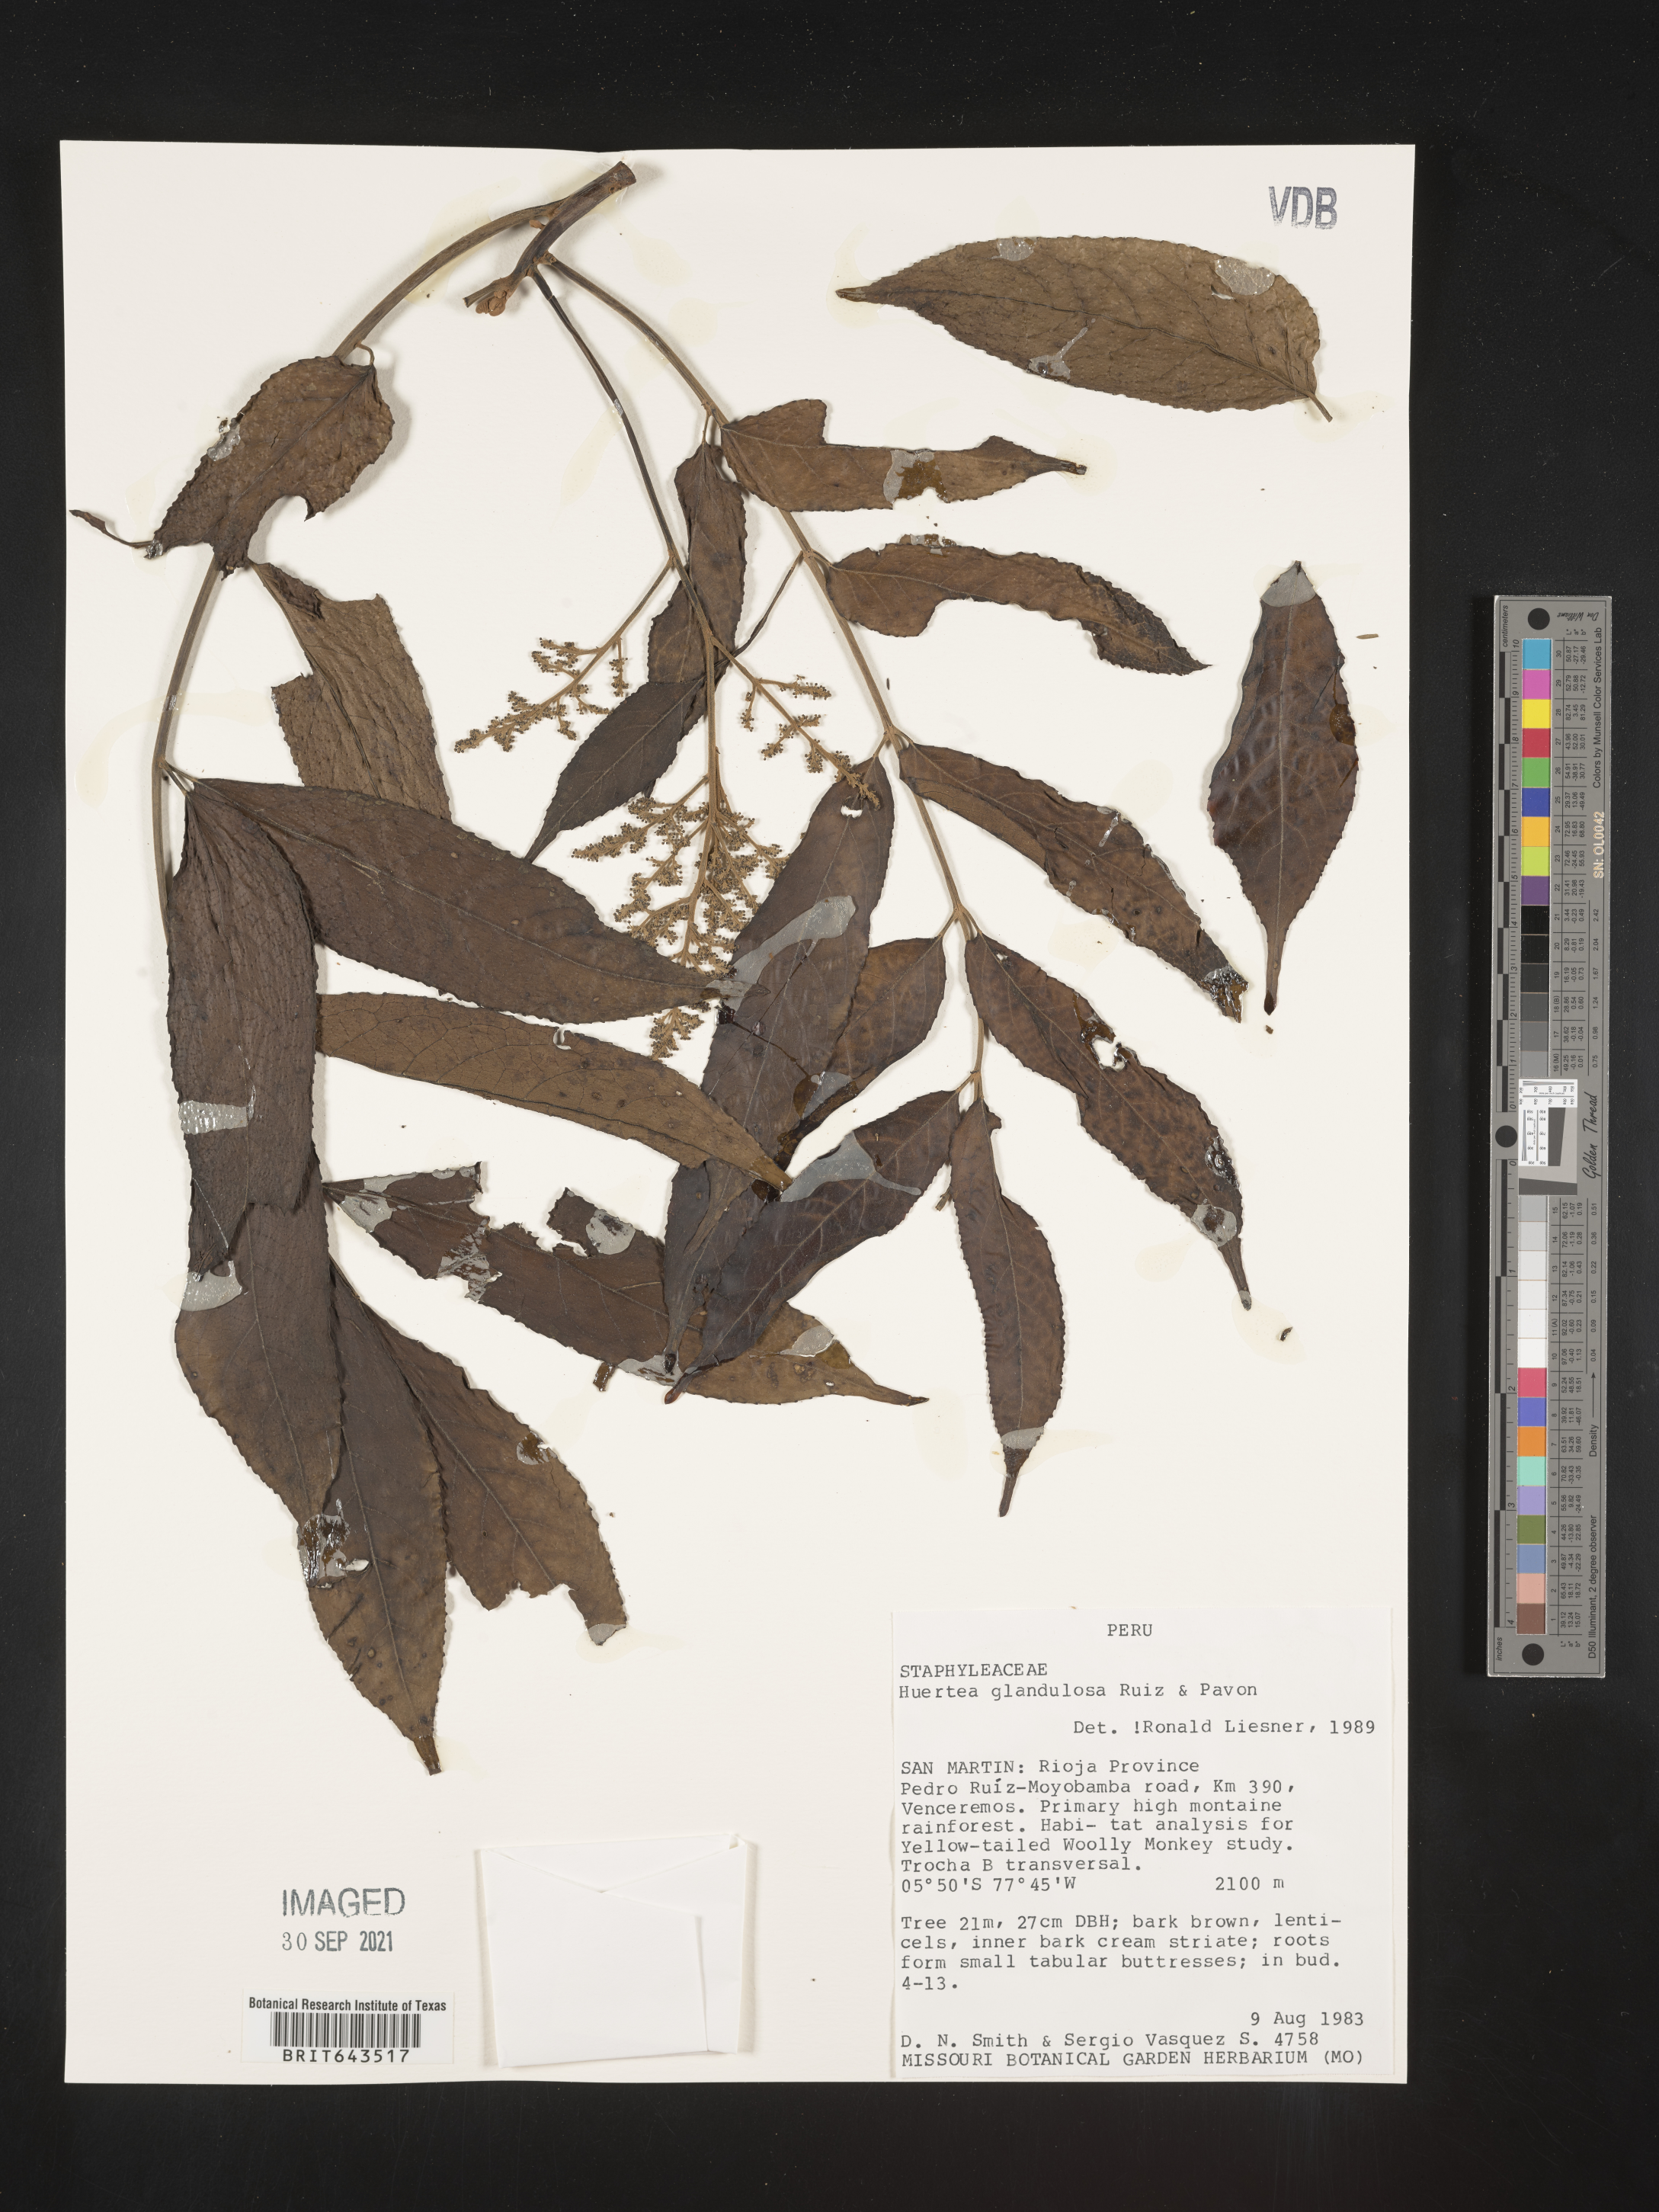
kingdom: Plantae
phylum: Tracheophyta
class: Magnoliopsida
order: Crossosomatales
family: Staphyleaceae
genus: Staphylea
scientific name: Staphylea
